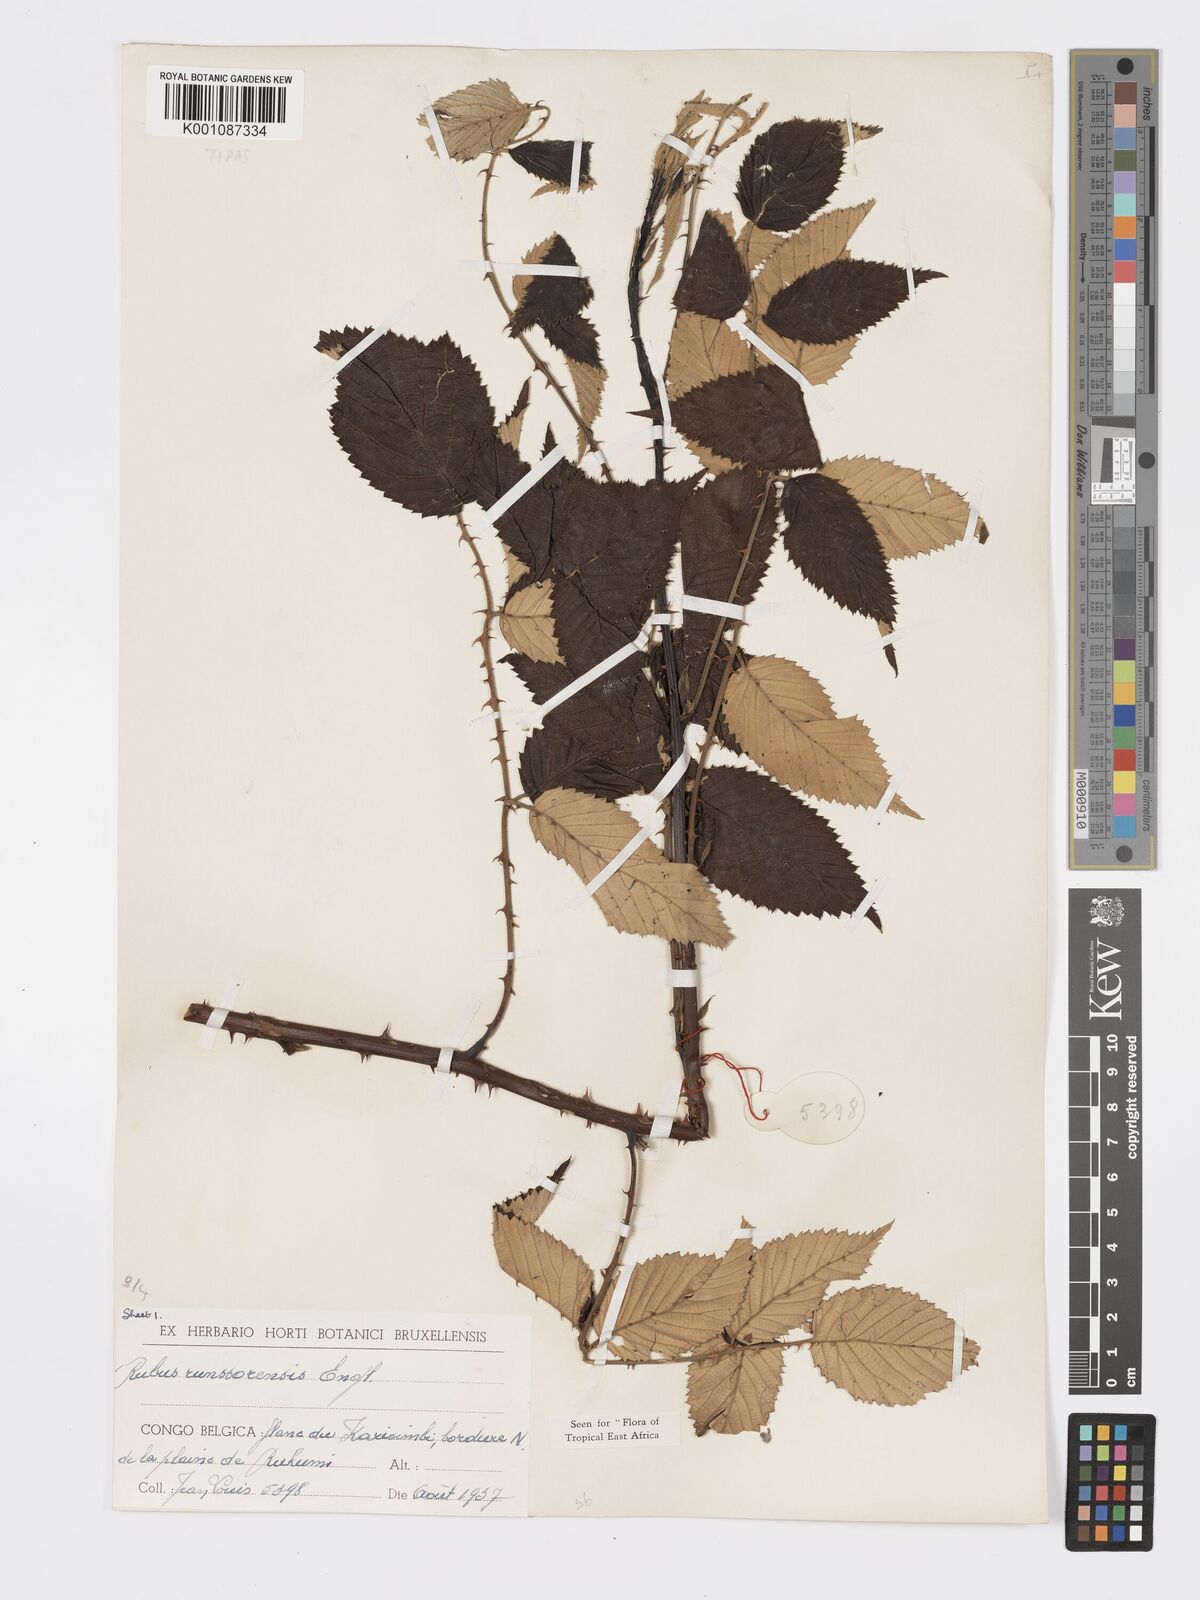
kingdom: Plantae
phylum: Tracheophyta
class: Magnoliopsida
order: Rosales
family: Rosaceae
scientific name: Rosaceae
